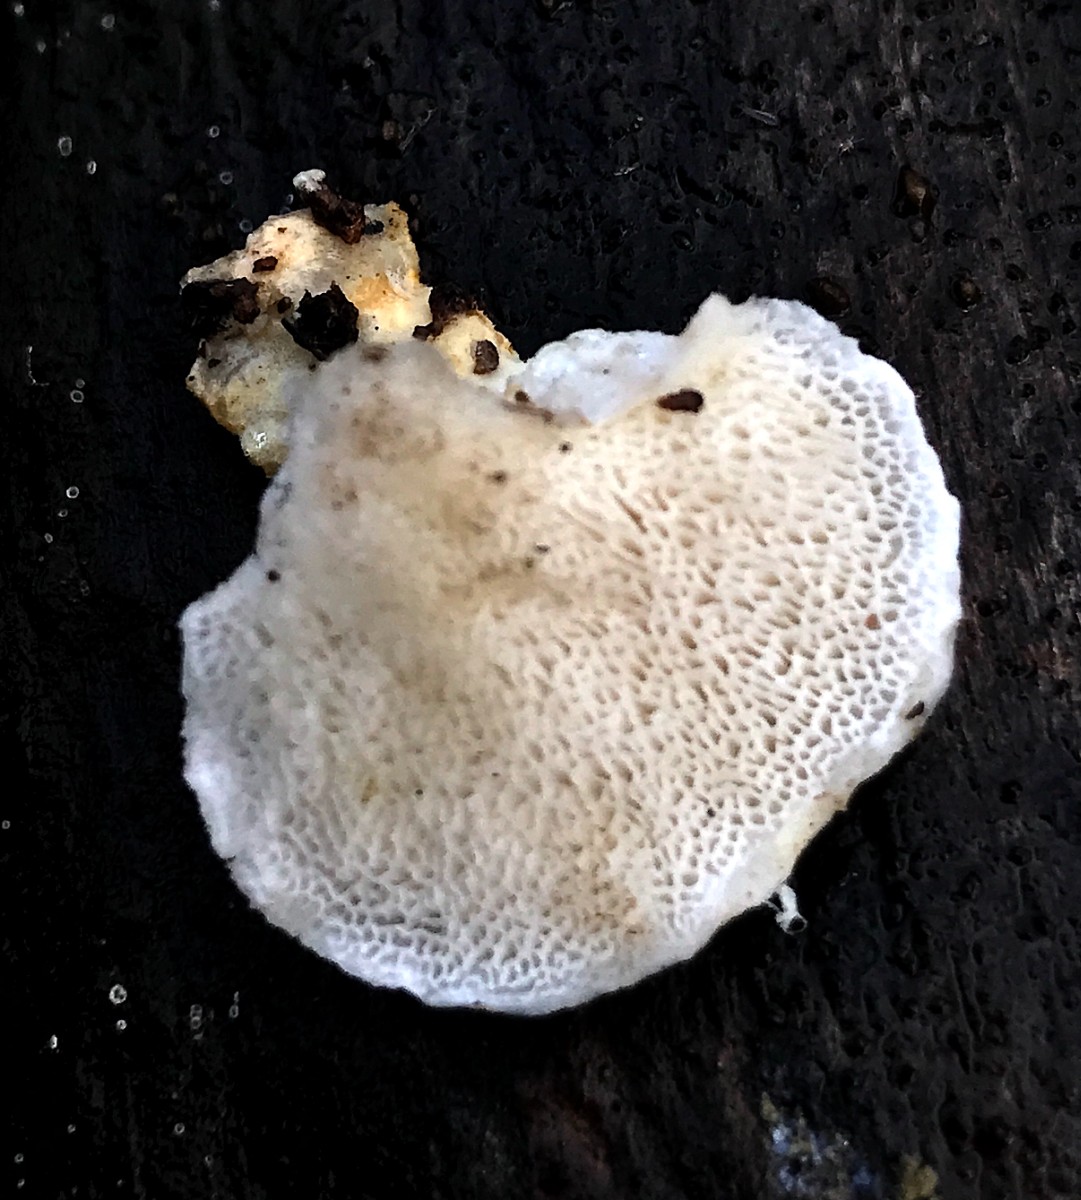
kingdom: Fungi
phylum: Basidiomycota
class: Agaricomycetes
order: Polyporales
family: Incrustoporiaceae
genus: Tyromyces
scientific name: Tyromyces lacteus
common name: mælkehvid kødporesvamp
